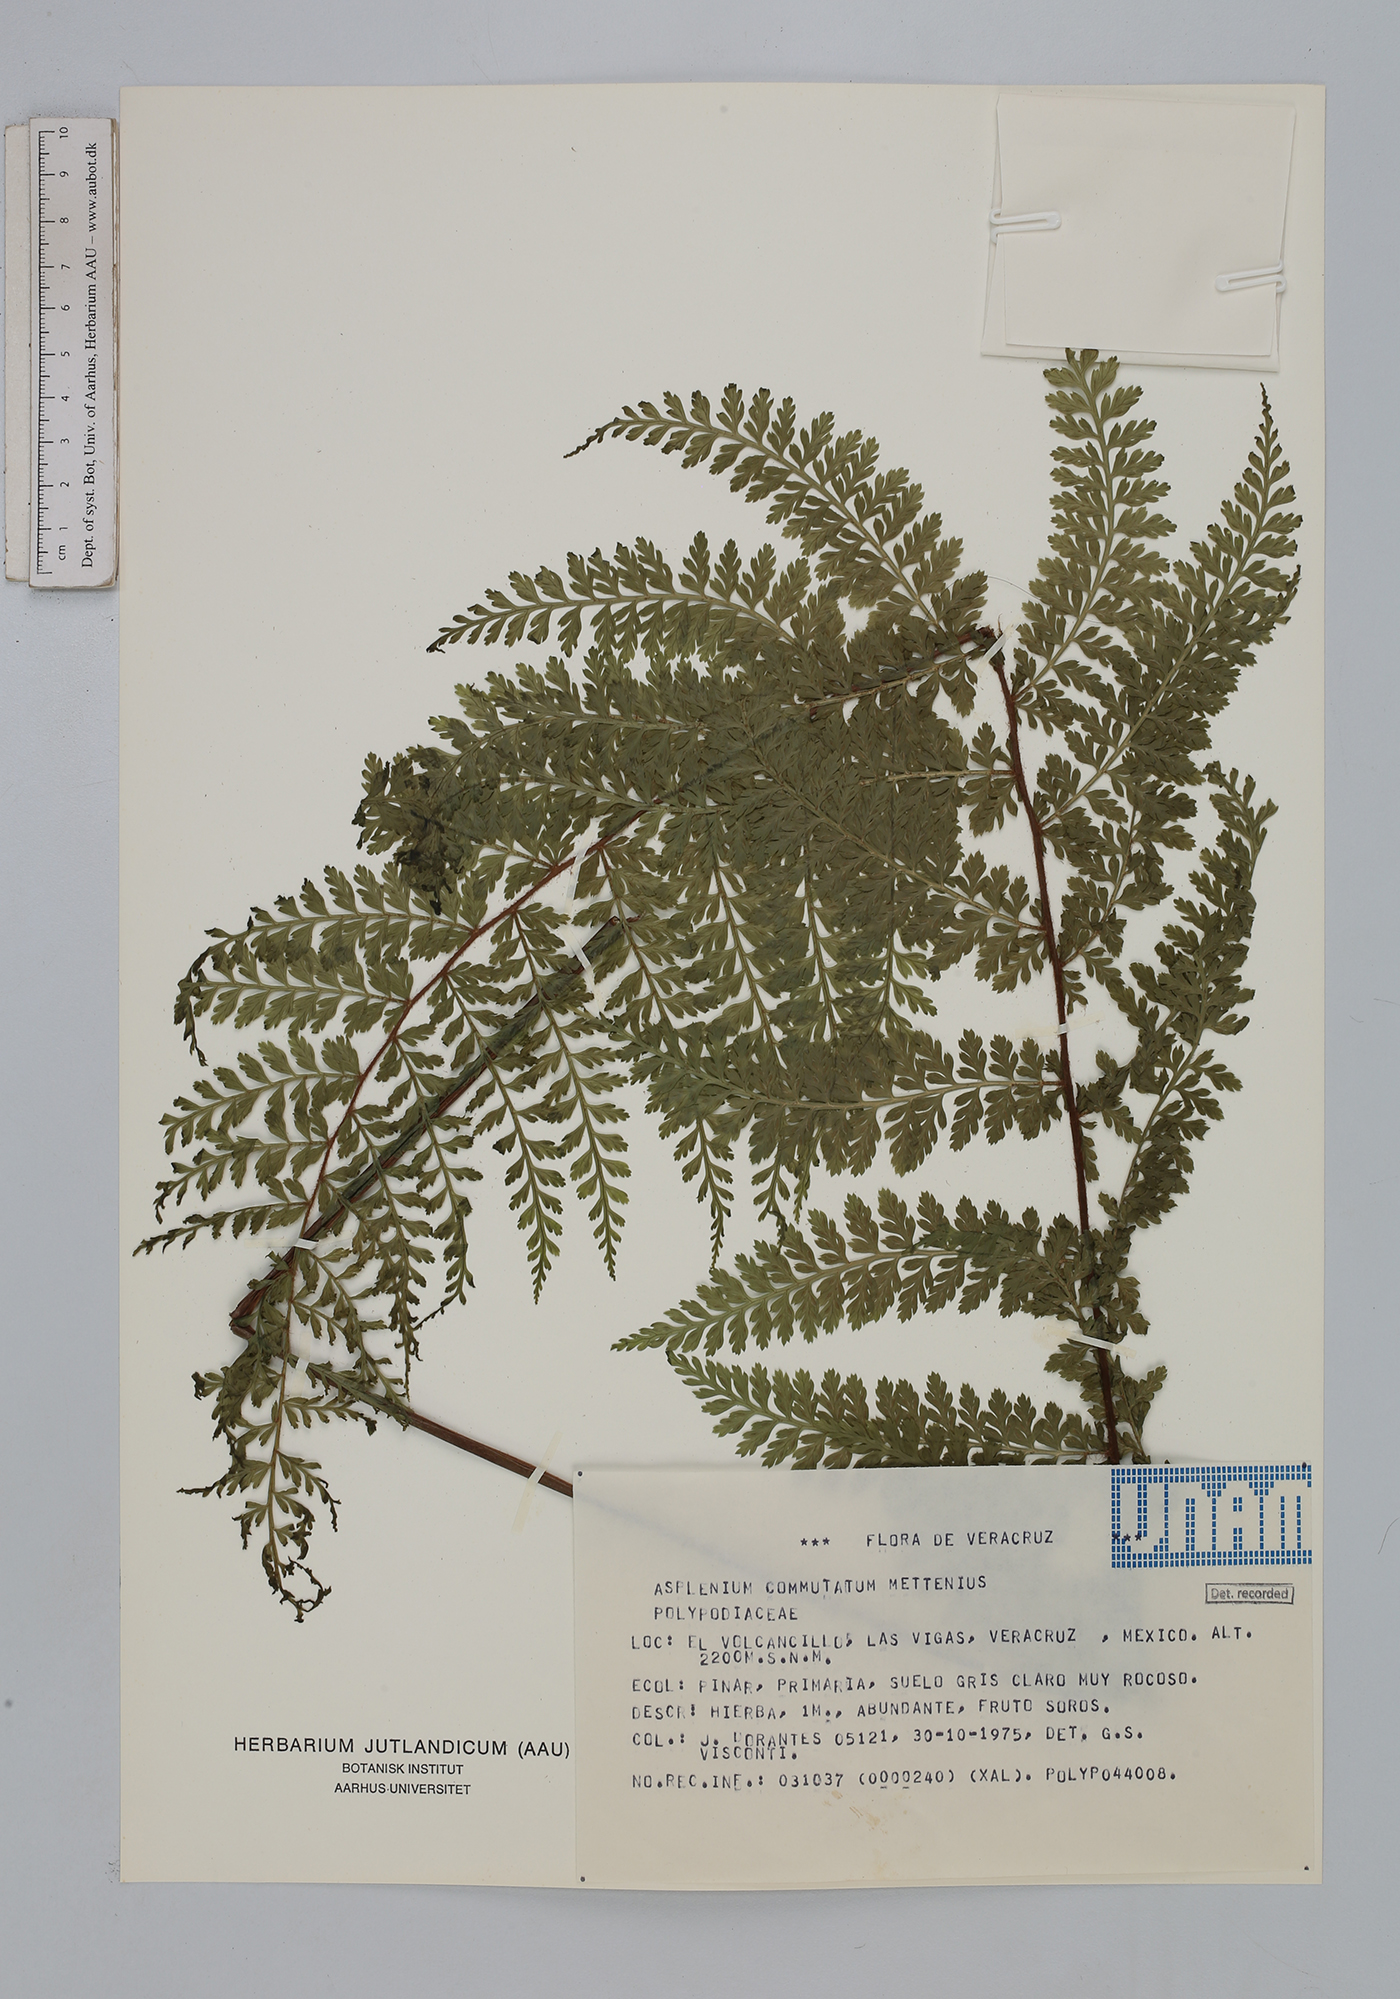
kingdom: Plantae
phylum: Tracheophyta
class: Polypodiopsida
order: Polypodiales
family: Aspleniaceae
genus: Asplenium
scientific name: Asplenium blepharophorum
